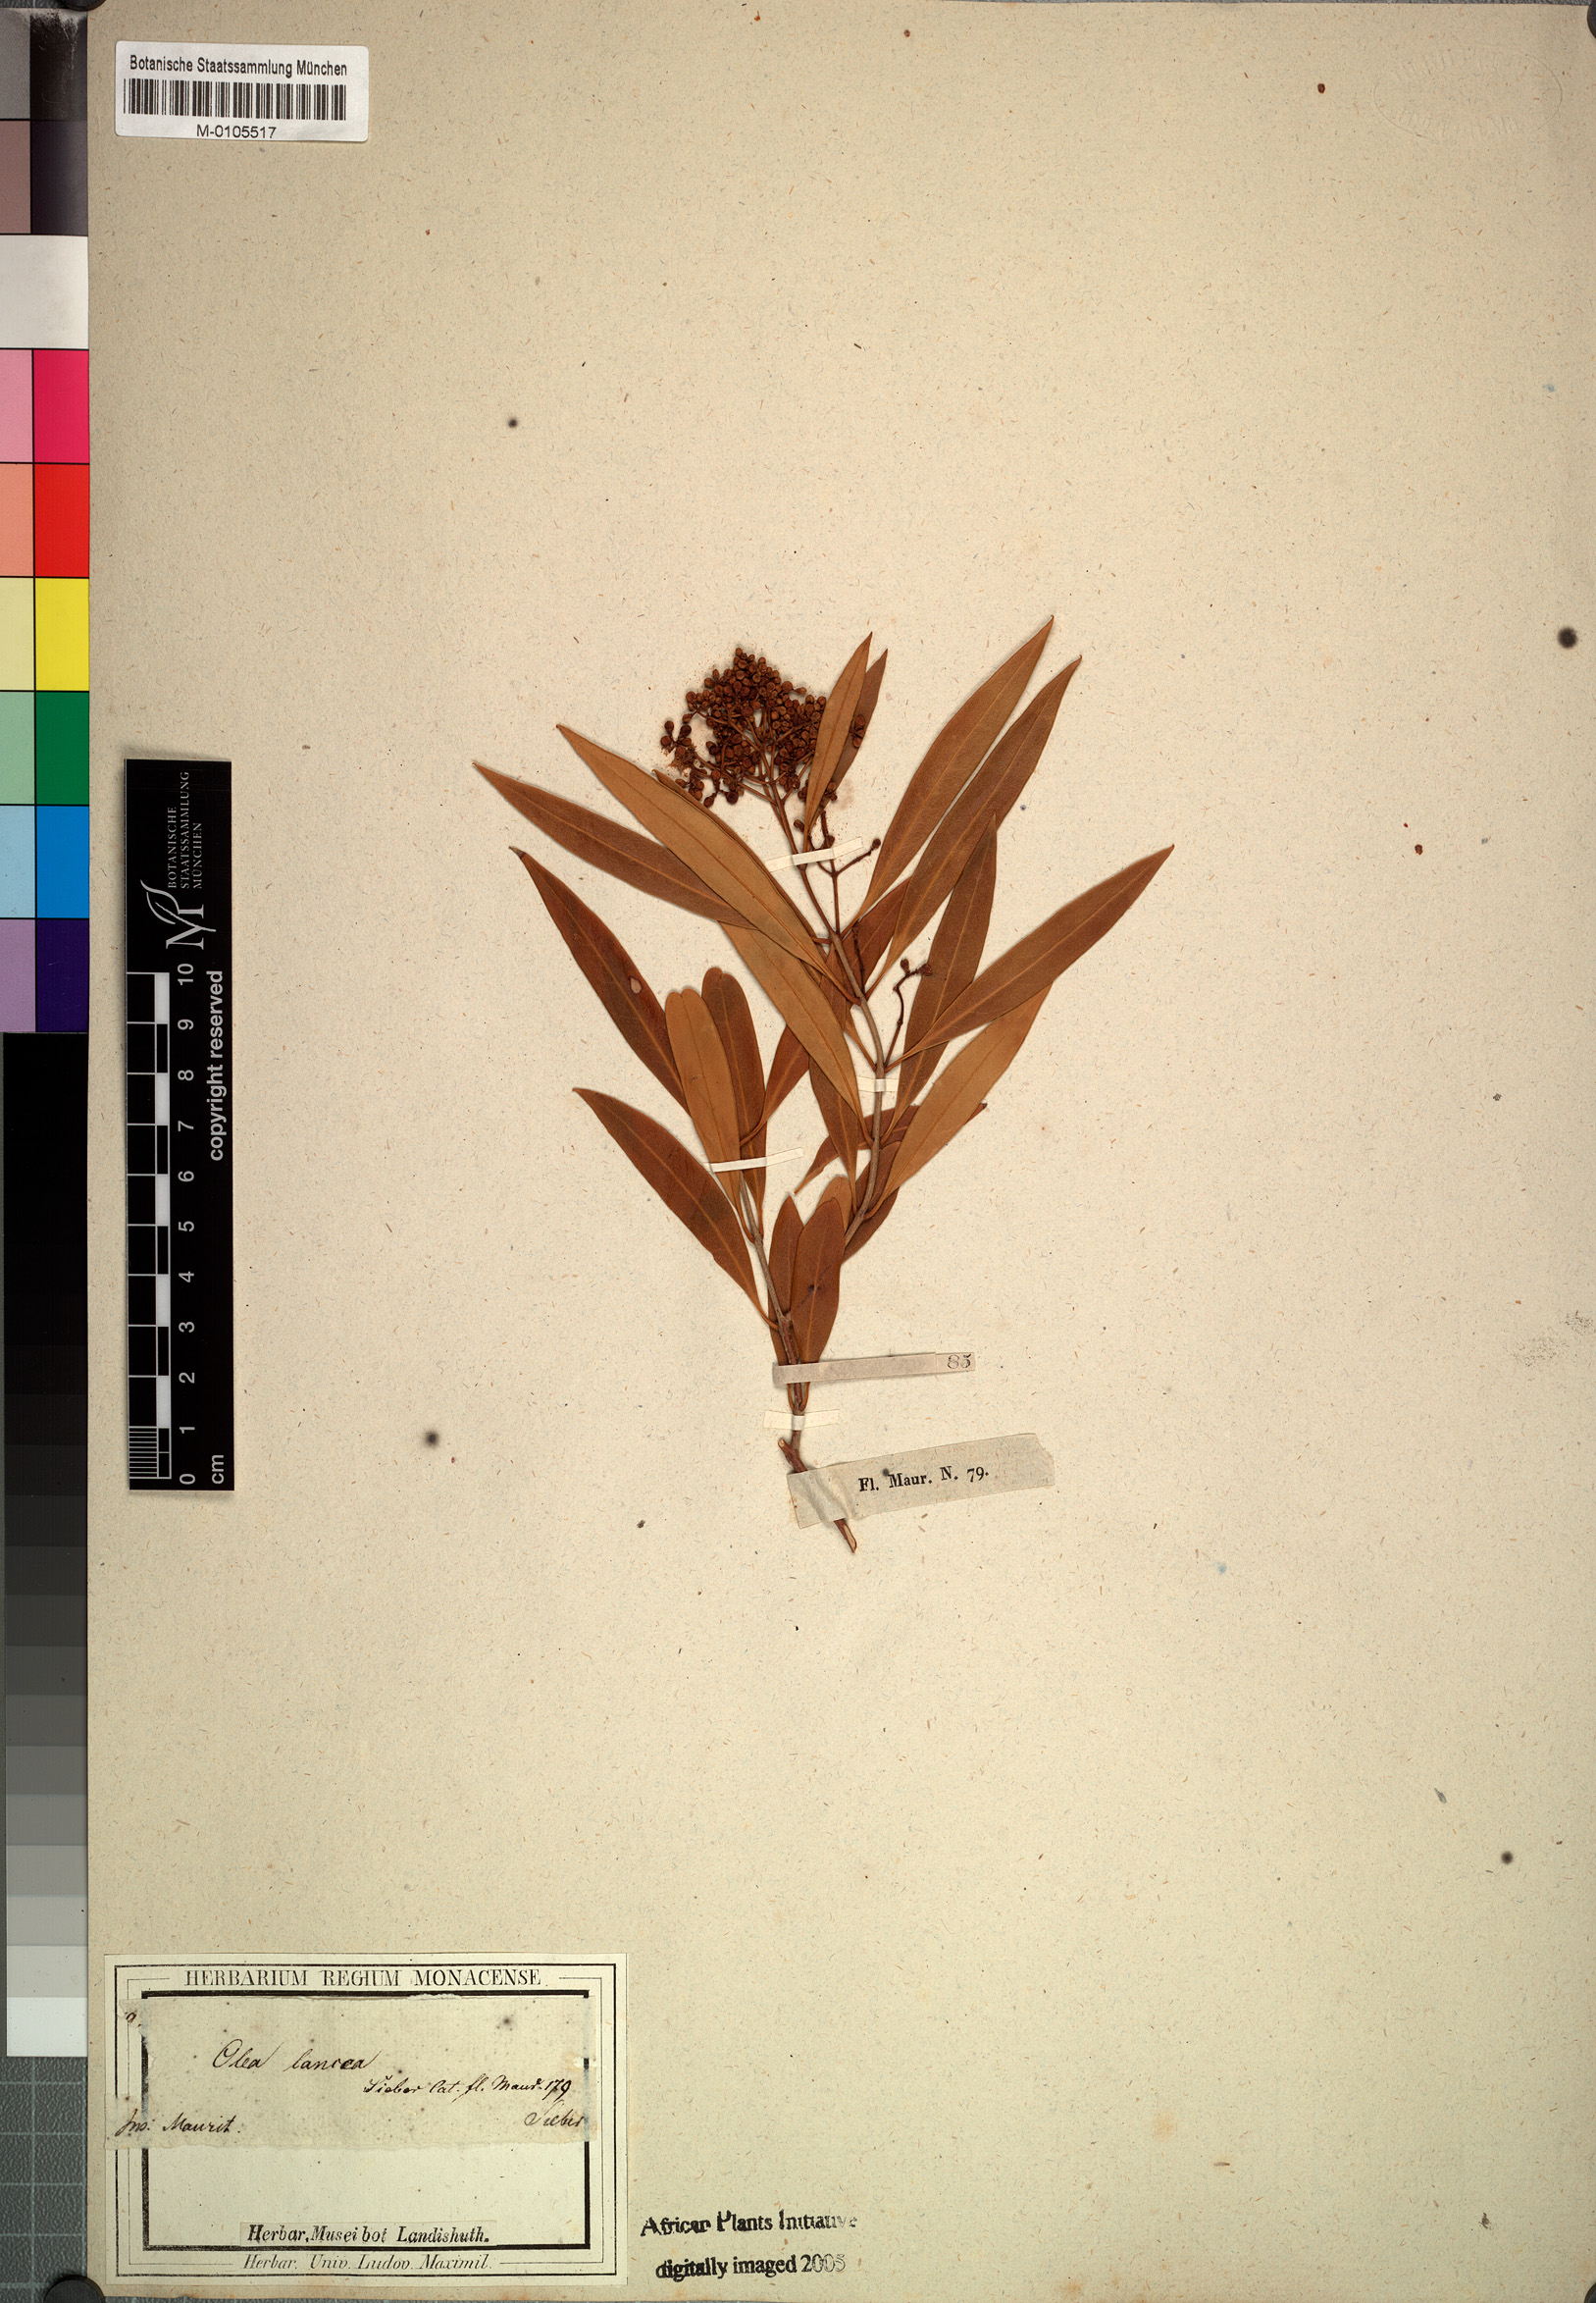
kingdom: Plantae
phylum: Tracheophyta
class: Magnoliopsida
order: Lamiales
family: Oleaceae
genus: Olea
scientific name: Olea lancea
